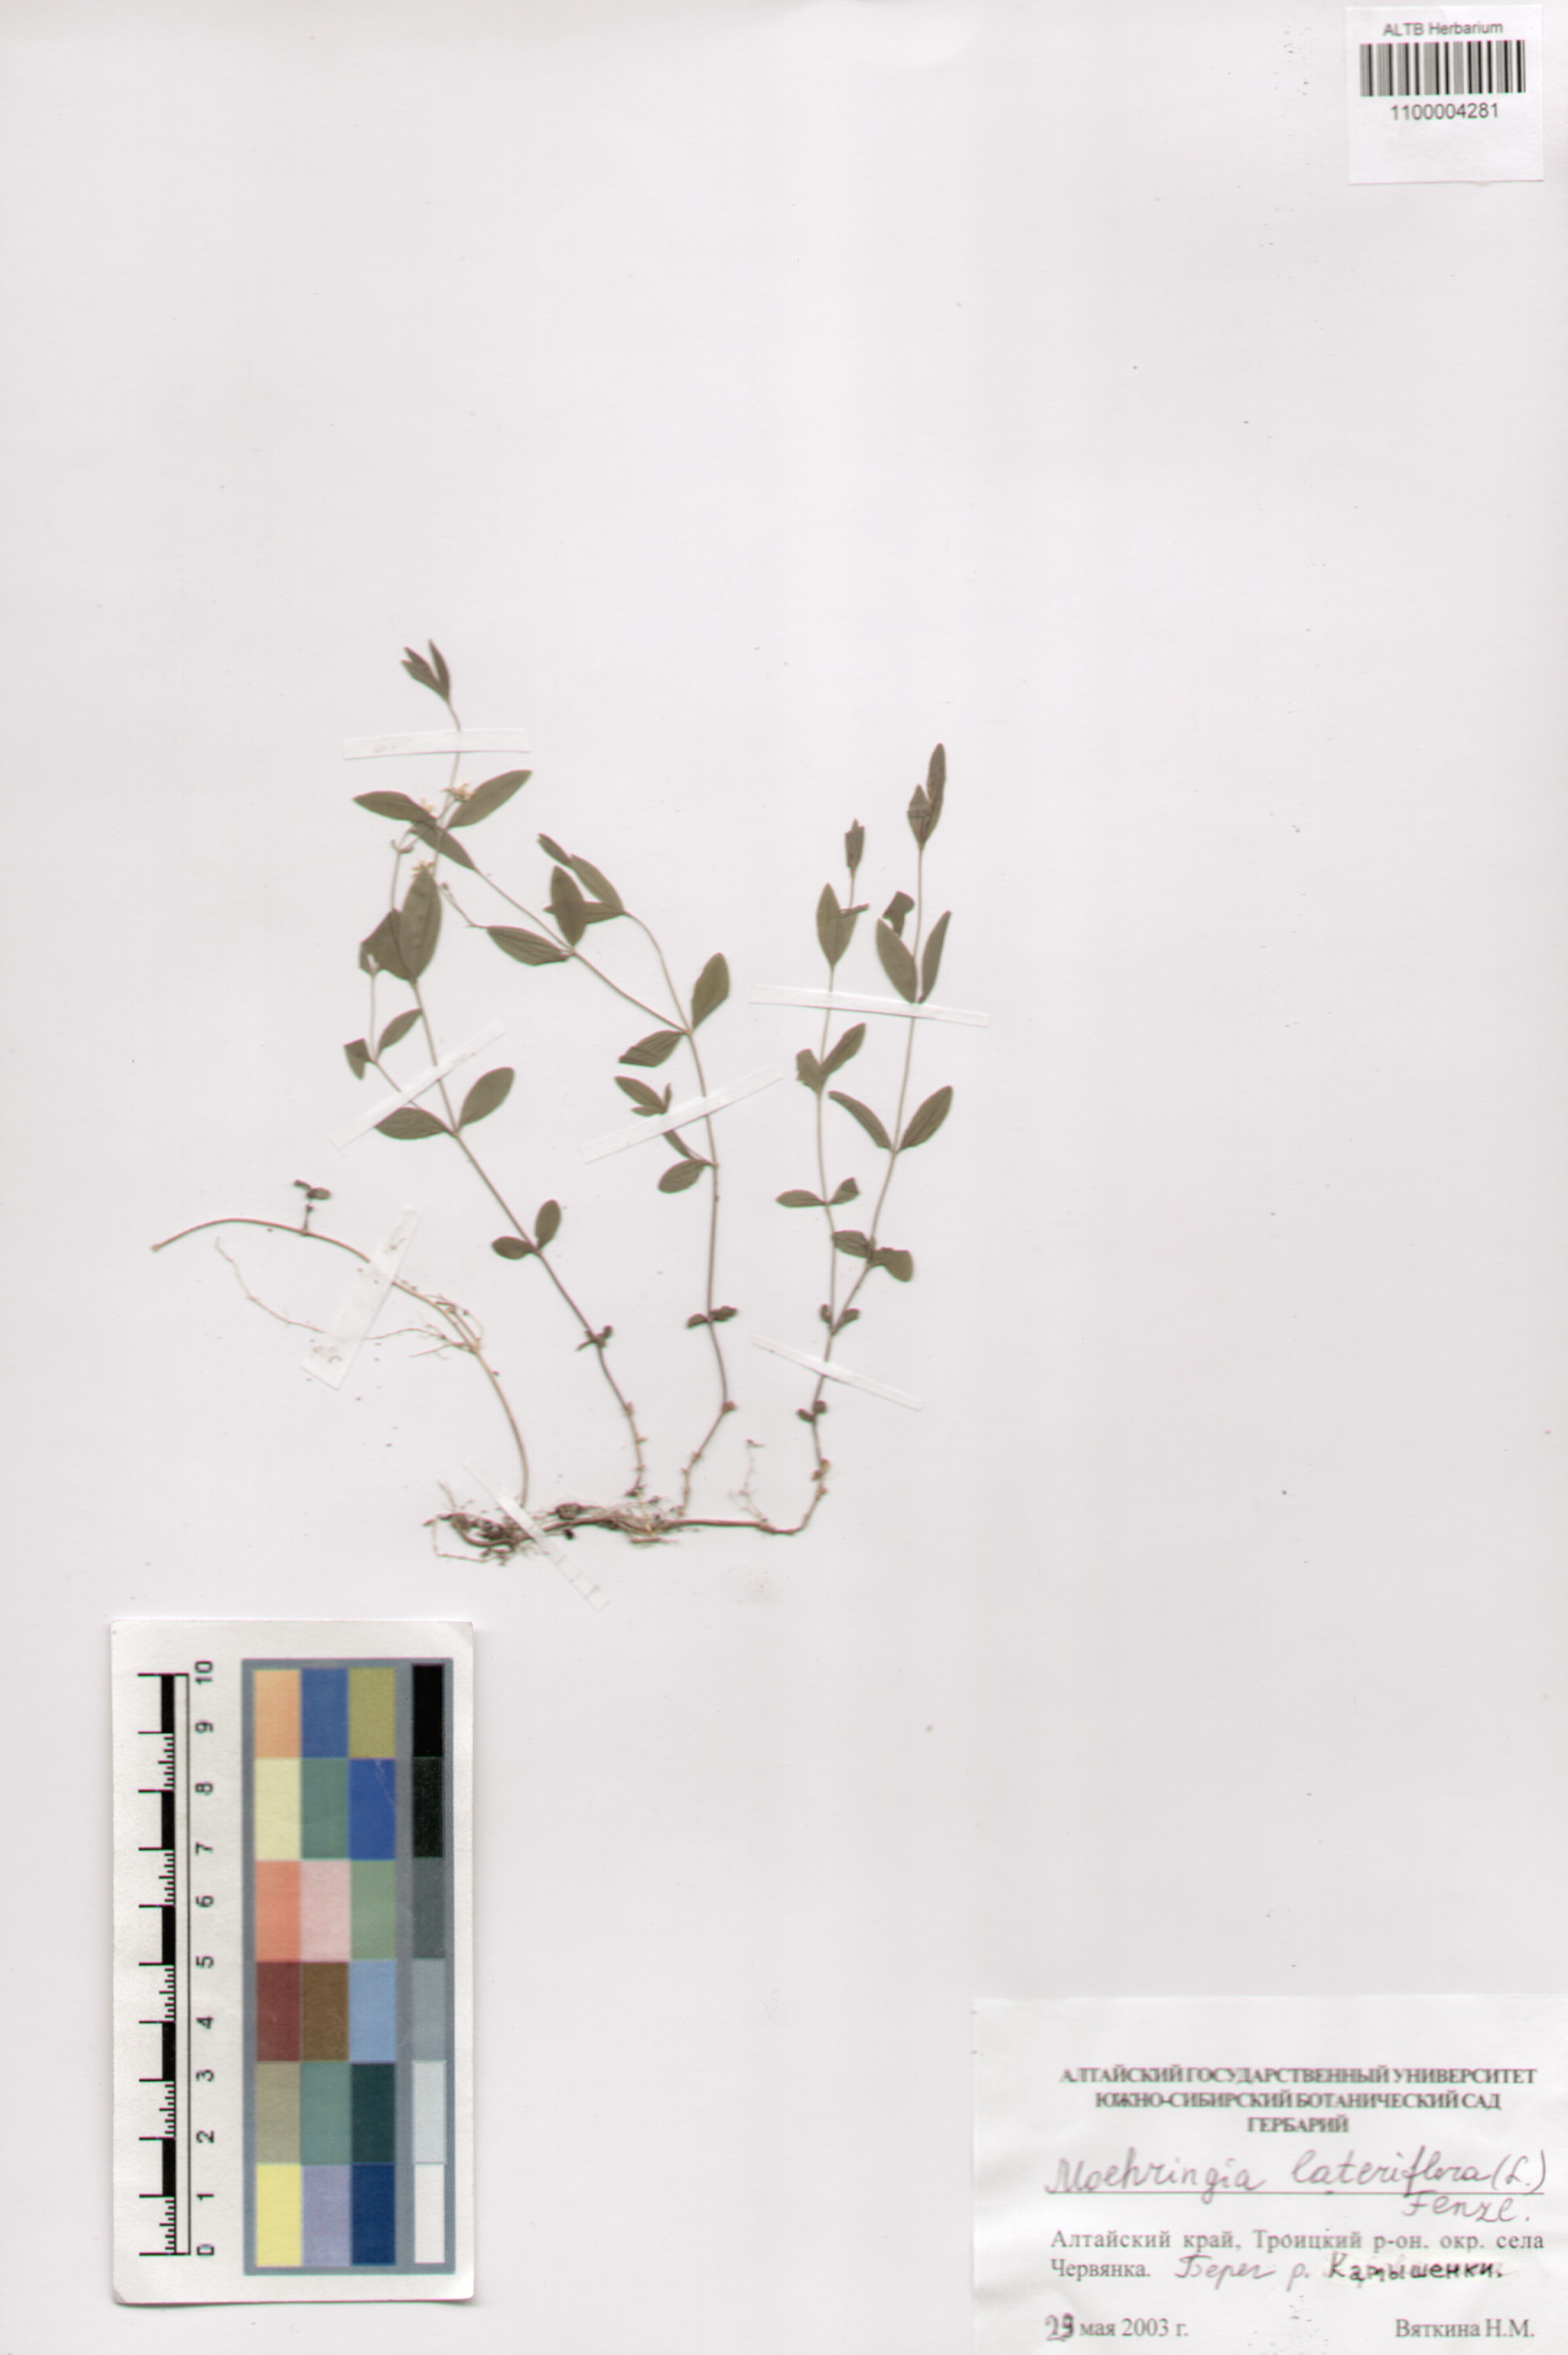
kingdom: Plantae
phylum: Tracheophyta
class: Magnoliopsida
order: Caryophyllales
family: Caryophyllaceae
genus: Moehringia
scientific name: Moehringia lateriflora
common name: Blunt-leaved sandwort
